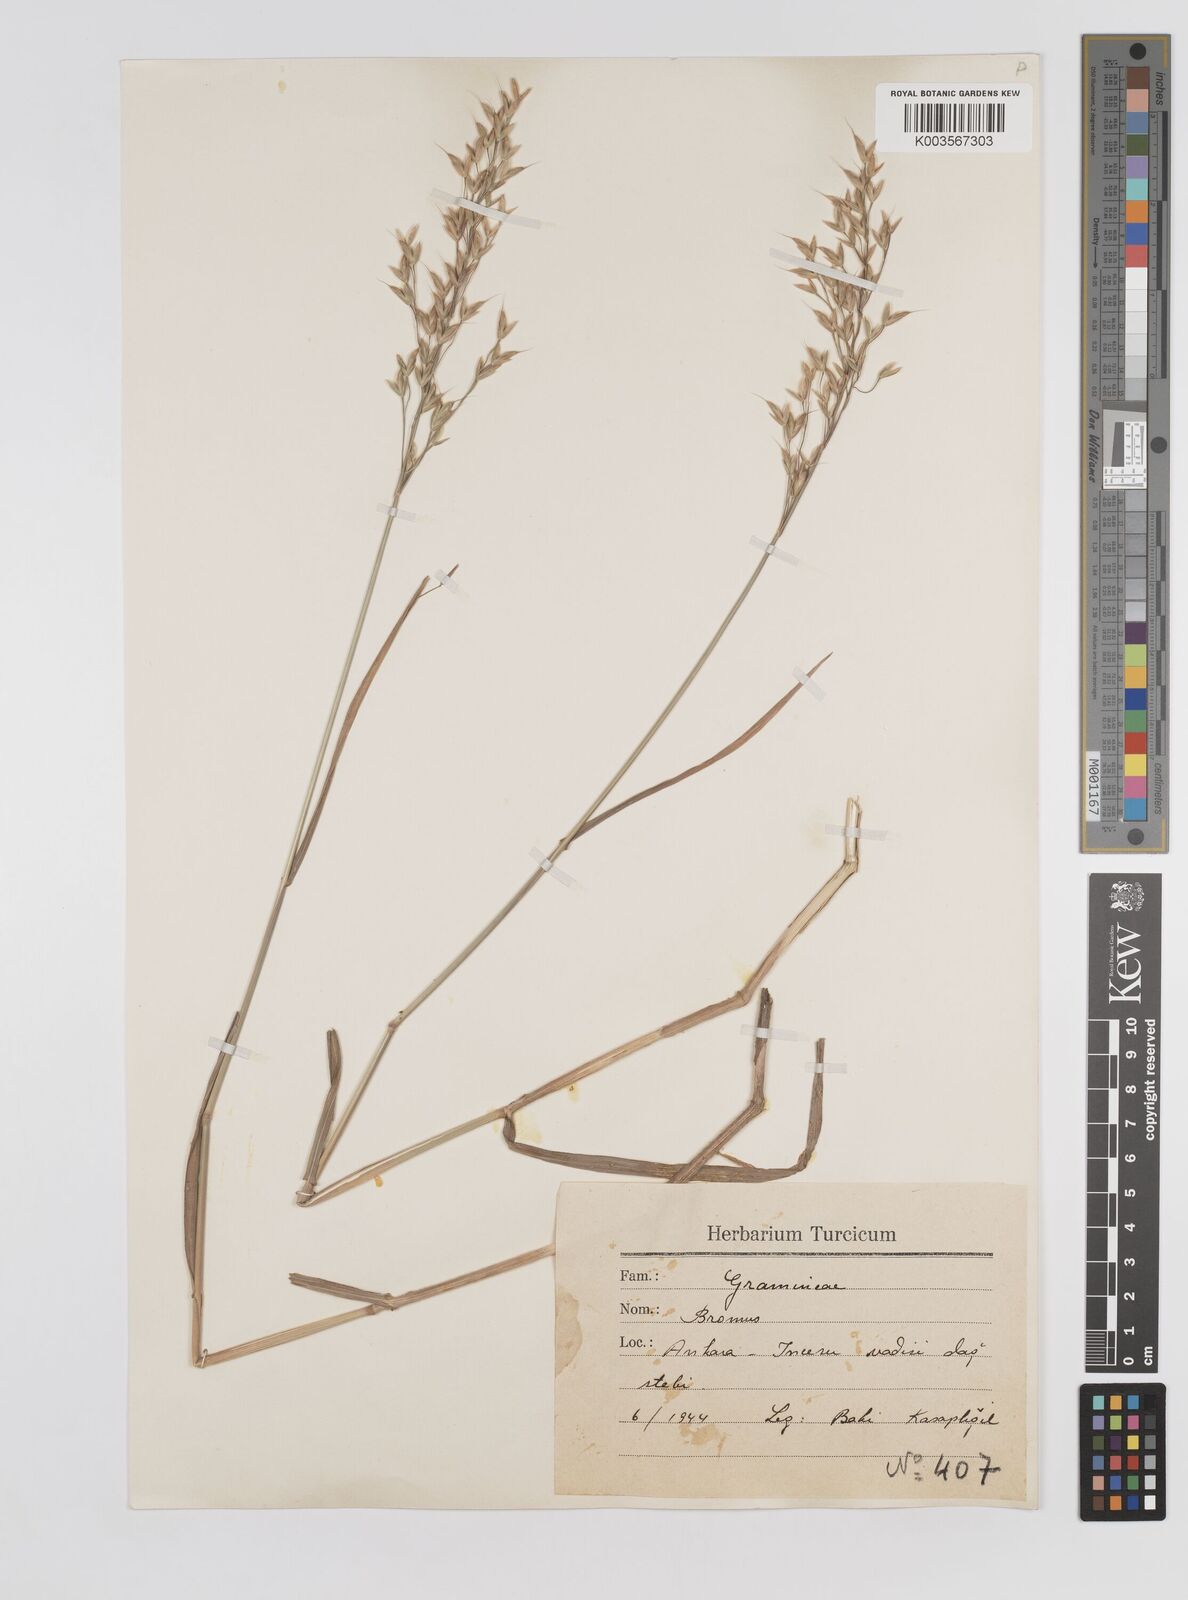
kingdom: Plantae
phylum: Tracheophyta
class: Liliopsida
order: Poales
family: Poaceae
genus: Bromus
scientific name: Bromus racemosus
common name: Bald brome
